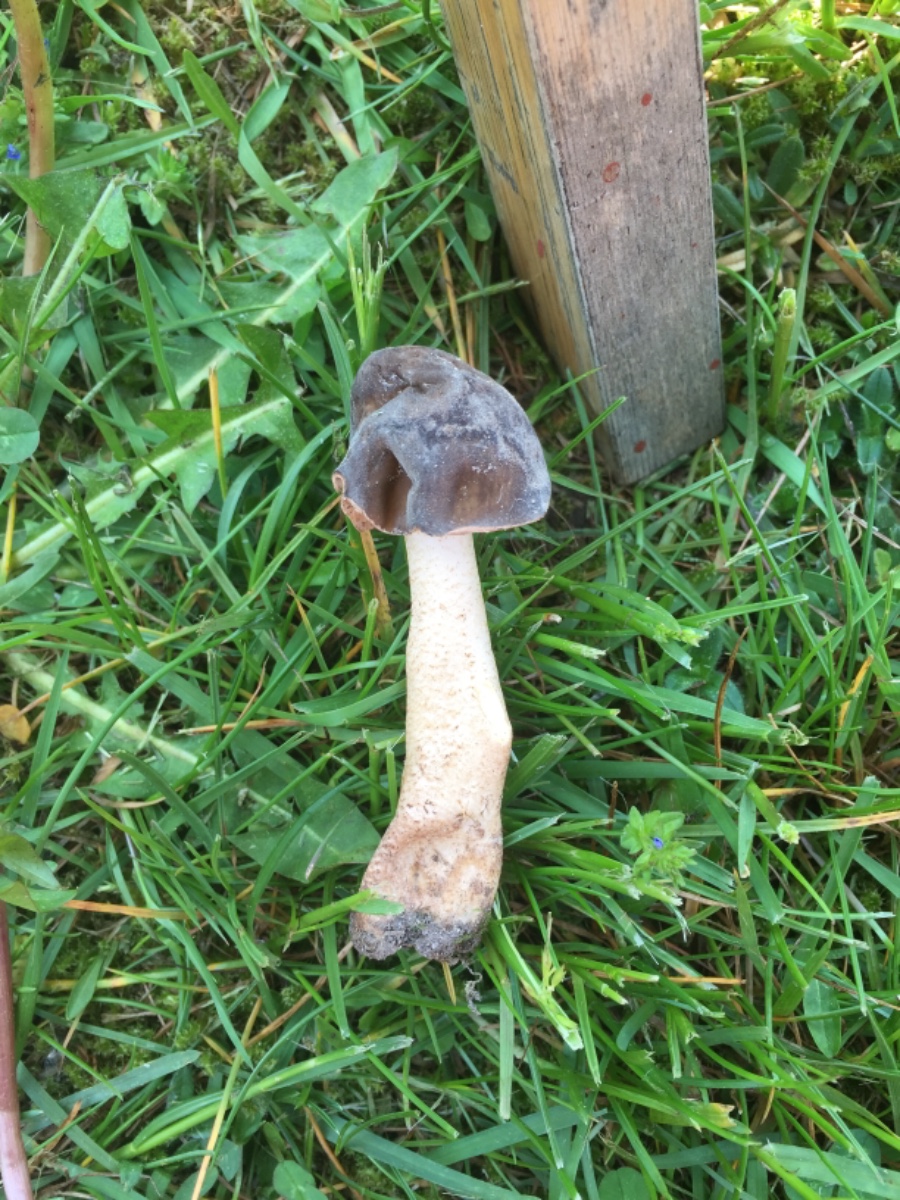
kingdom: Fungi
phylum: Ascomycota
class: Pezizomycetes
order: Pezizales
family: Morchellaceae
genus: Verpa
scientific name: Verpa conica
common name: glat klokkemorkel
